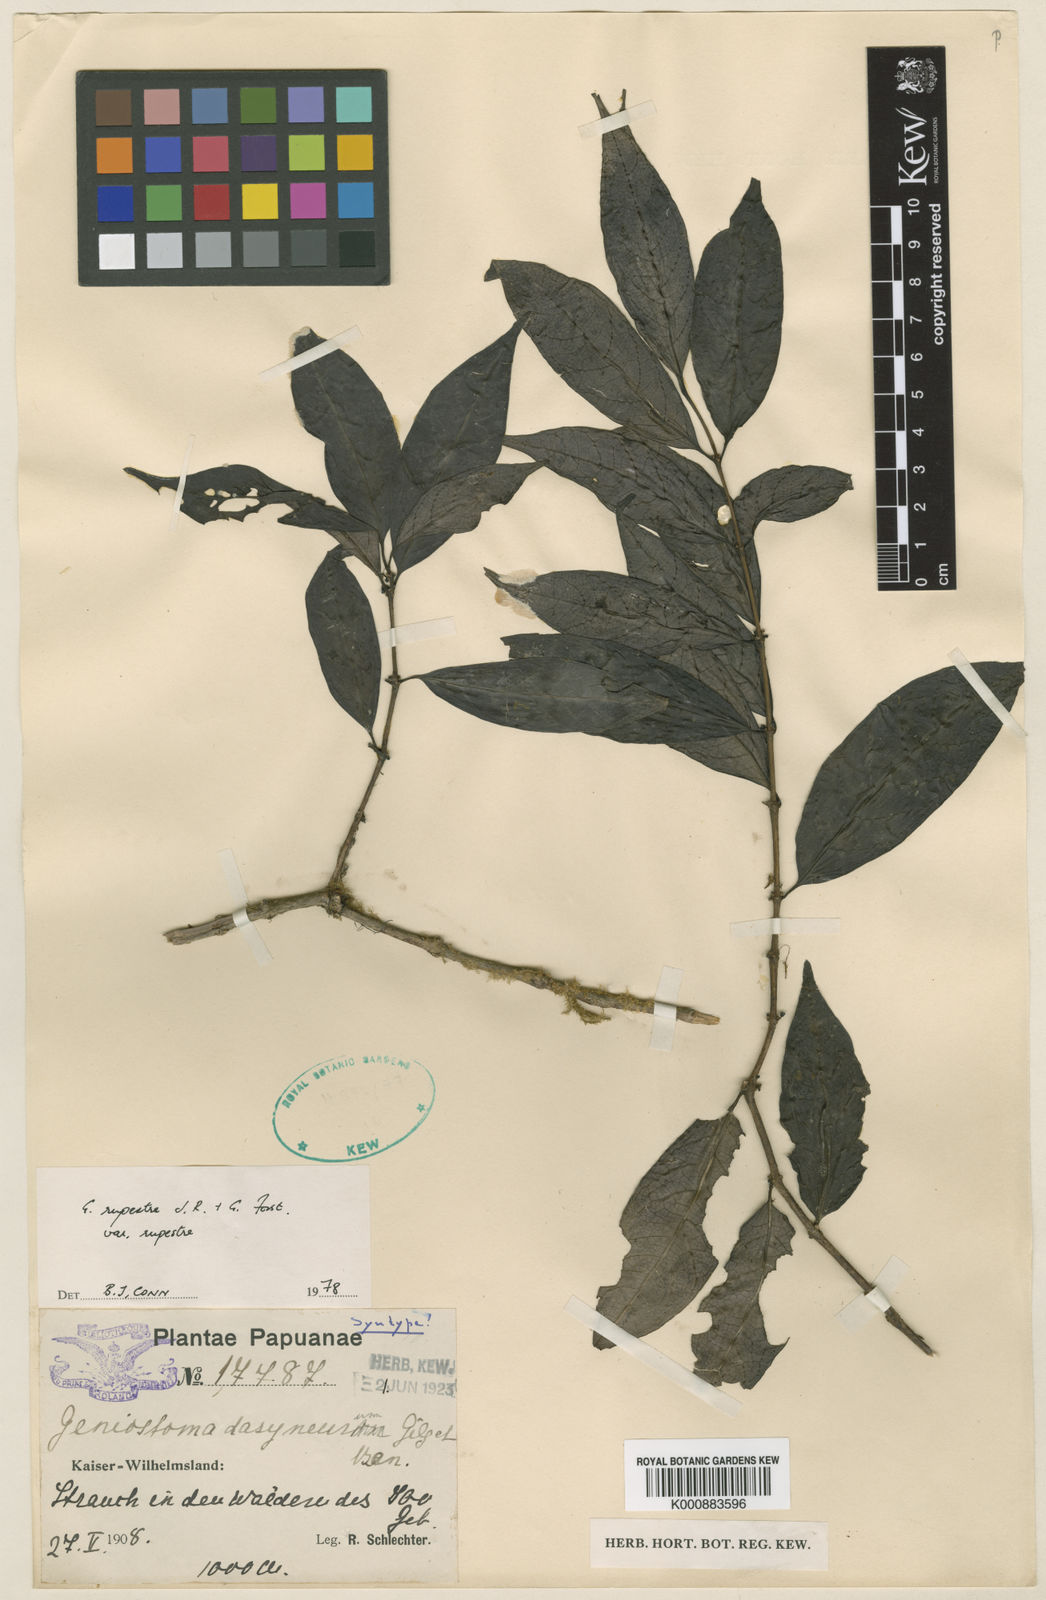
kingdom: Plantae
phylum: Tracheophyta
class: Magnoliopsida
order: Gentianales
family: Loganiaceae
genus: Geniostoma
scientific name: Geniostoma rupestre
